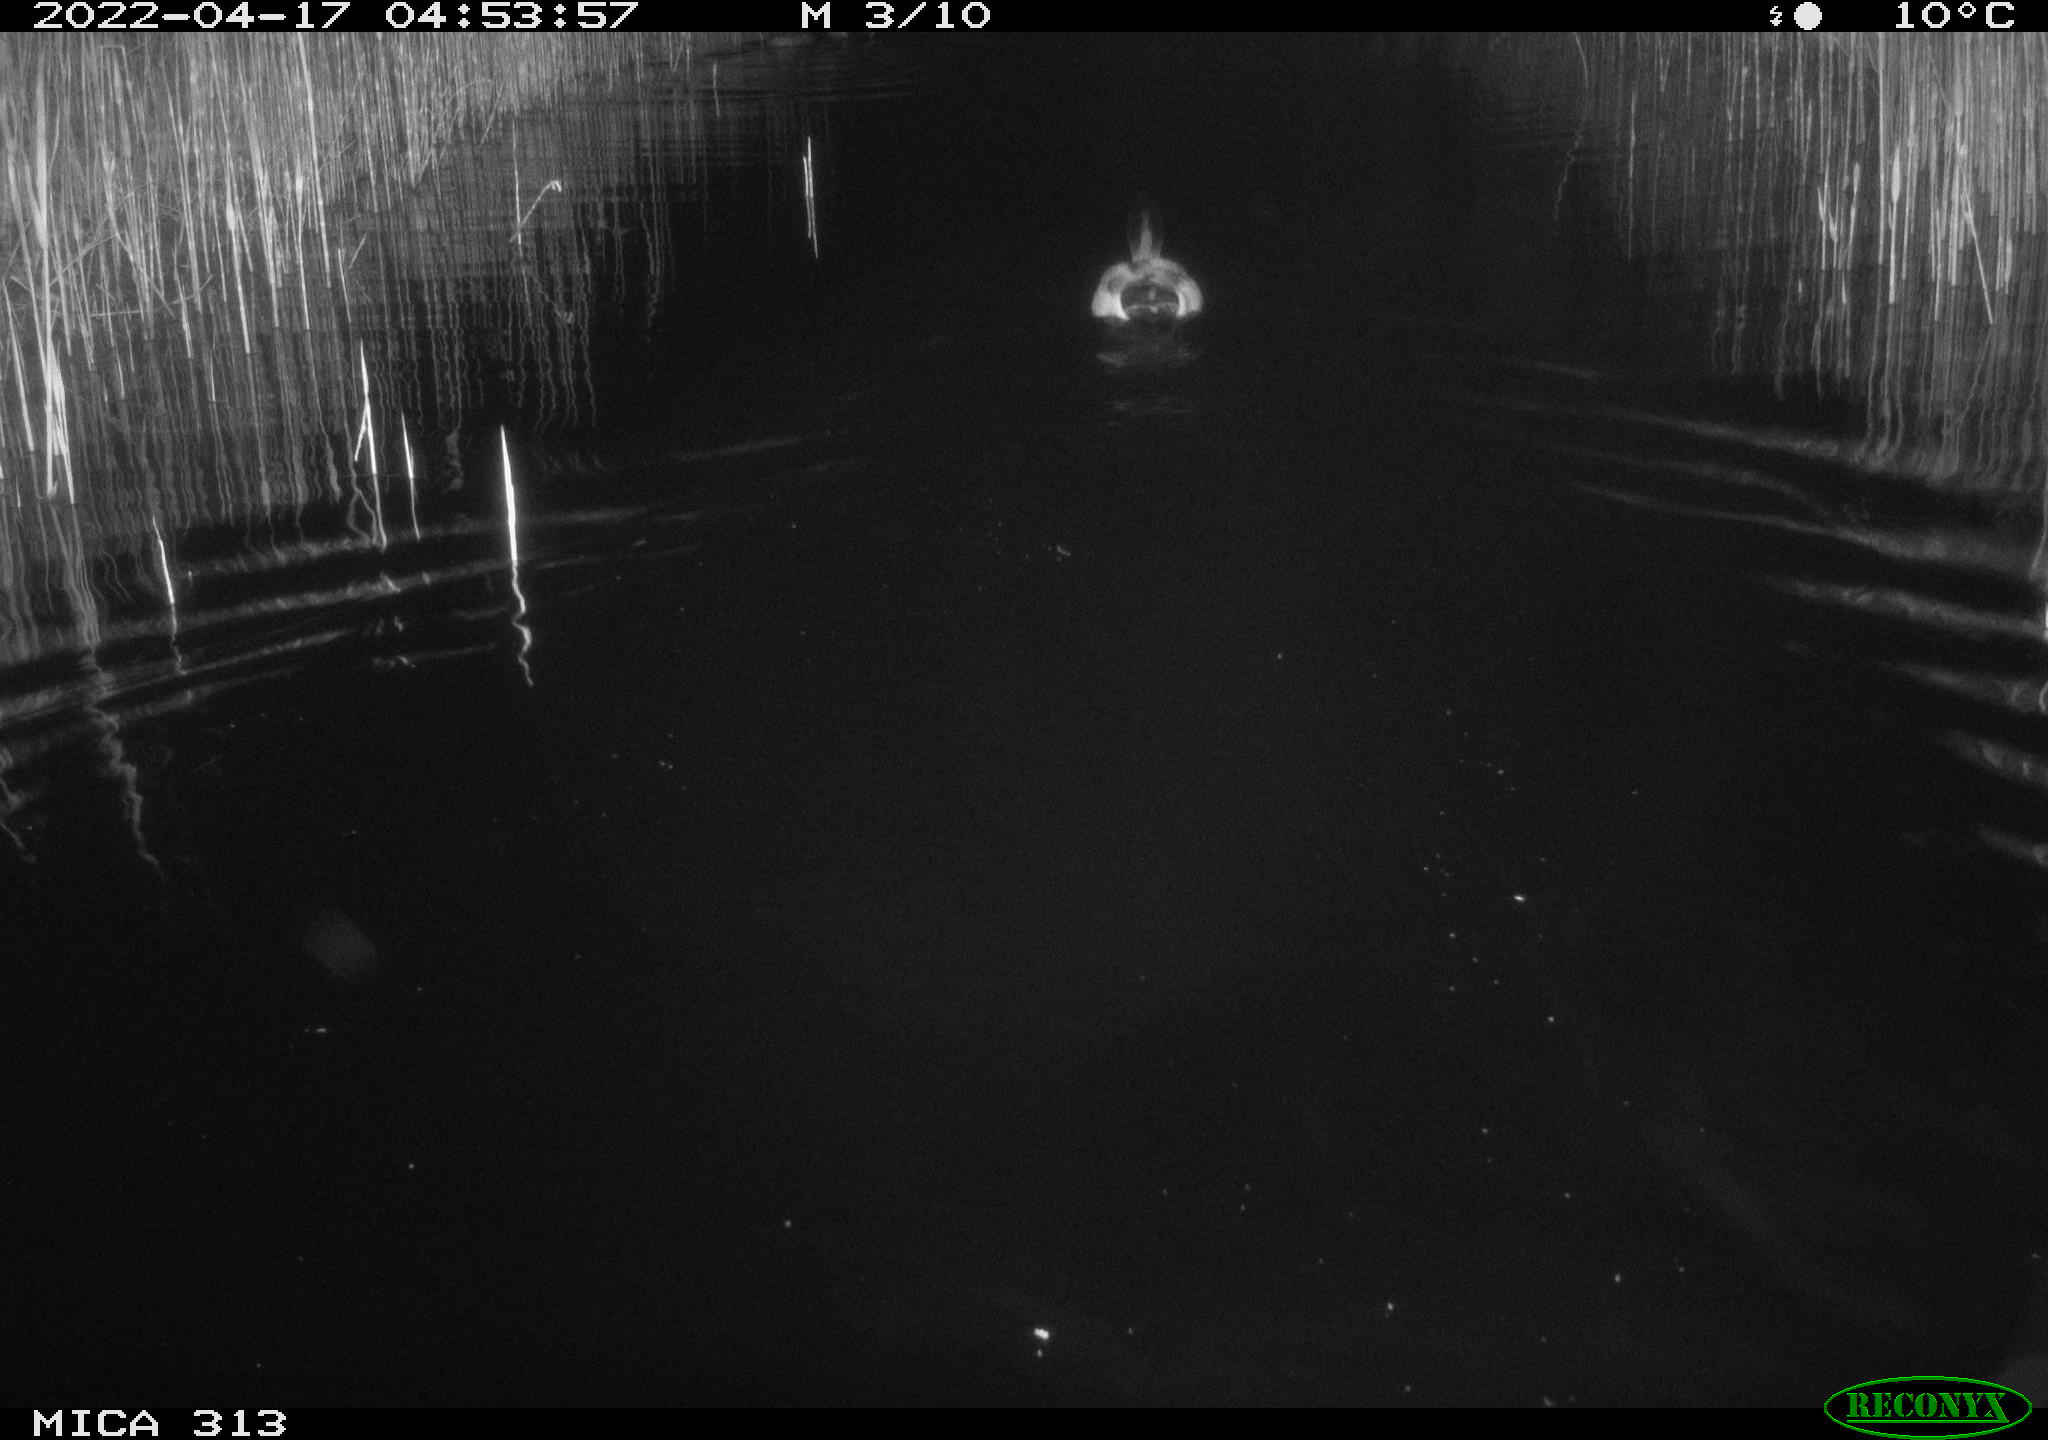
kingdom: Animalia
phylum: Chordata
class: Aves
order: Anseriformes
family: Anatidae
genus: Anas
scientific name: Anas platyrhynchos
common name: Mallard
